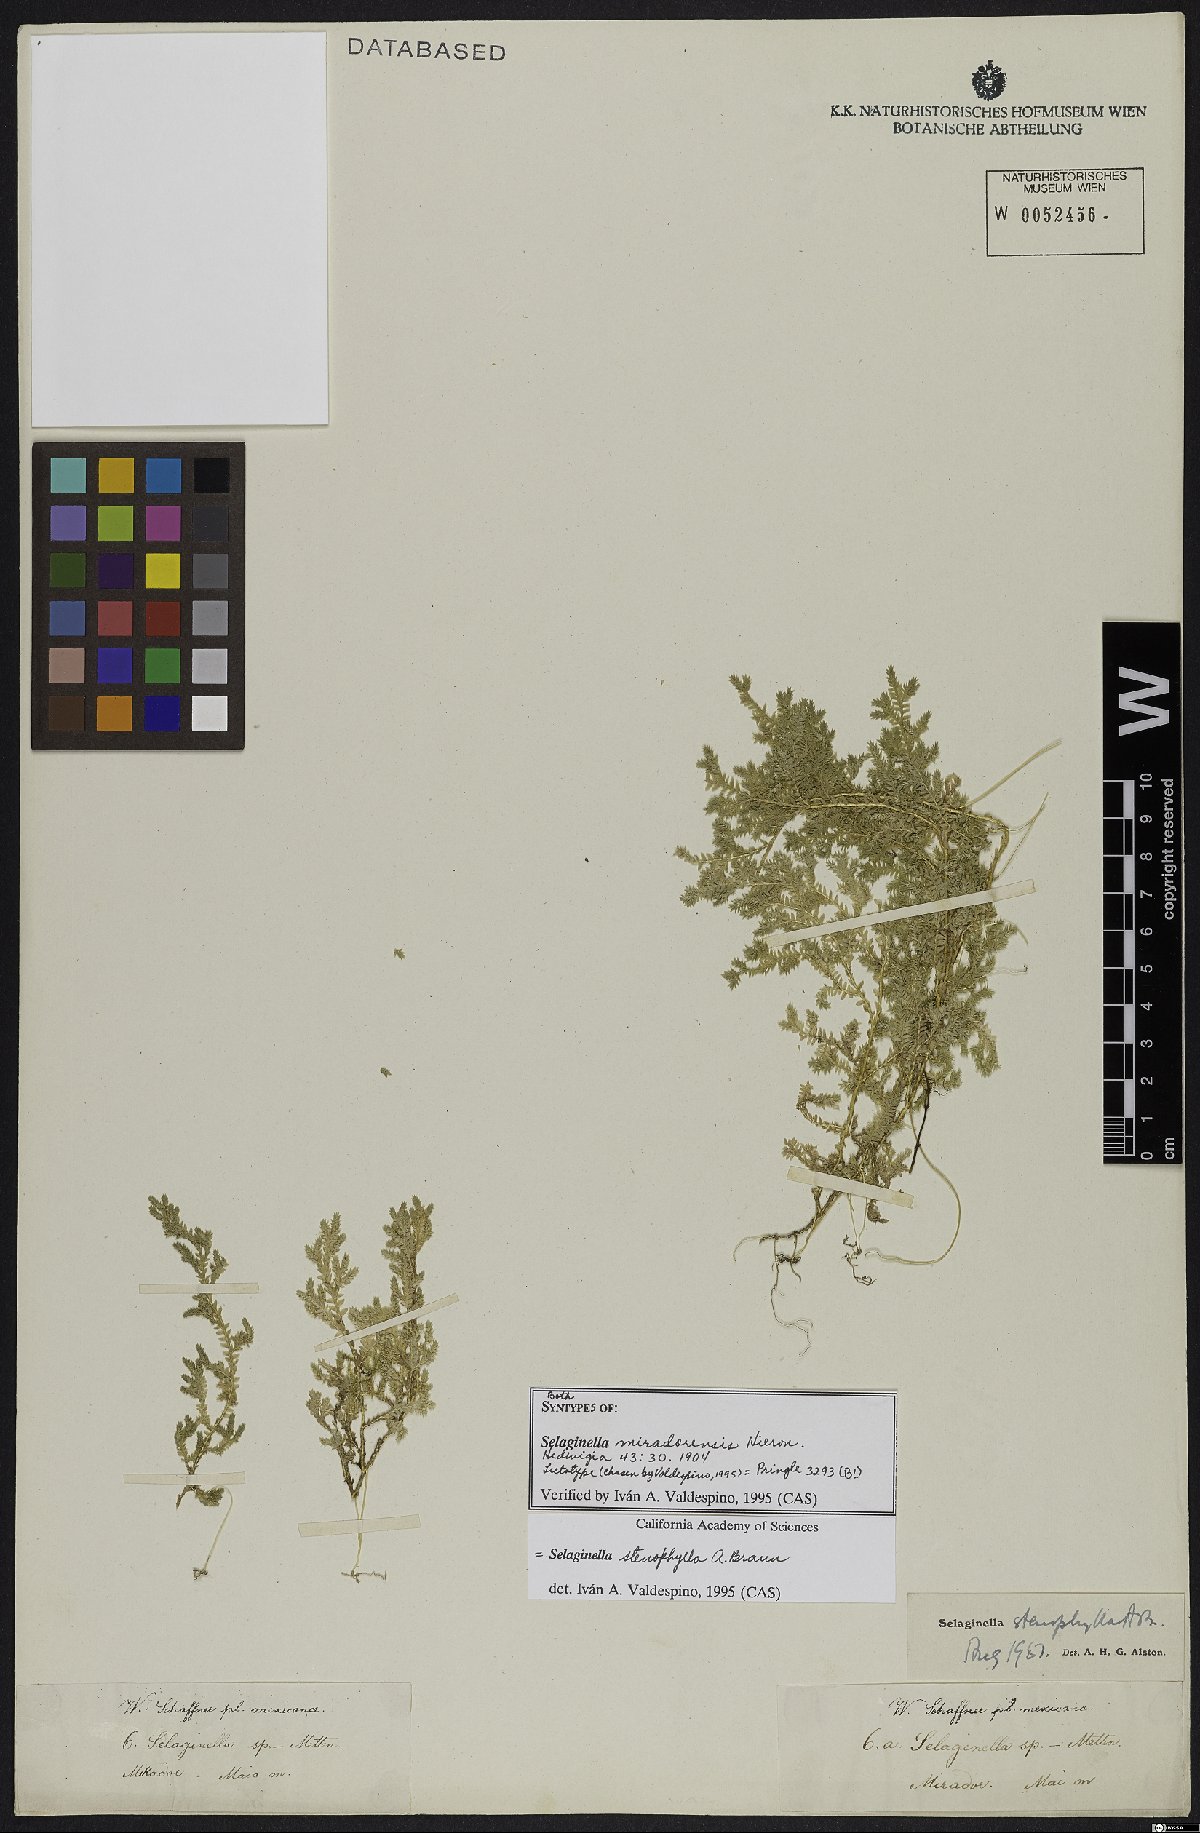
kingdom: Plantae
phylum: Tracheophyta
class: Lycopodiopsida
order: Selaginellales
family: Selaginellaceae
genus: Selaginella
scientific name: Selaginella stenophylla
